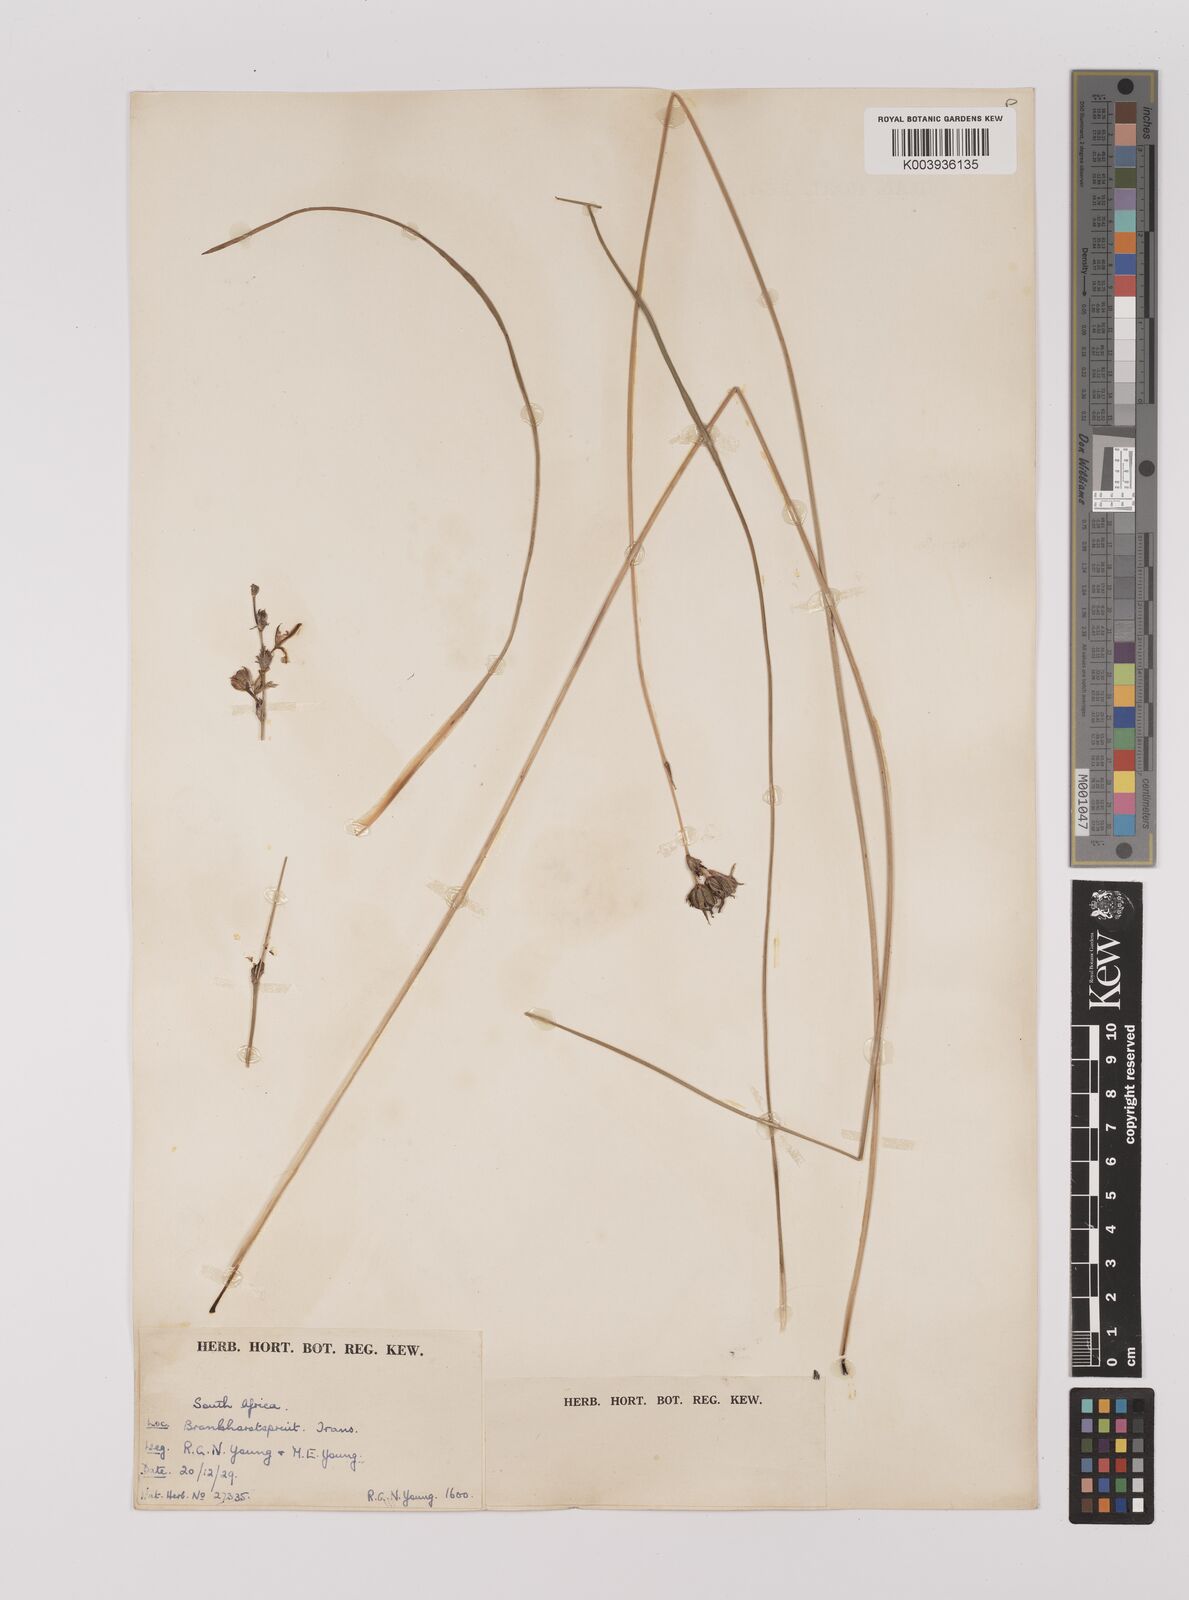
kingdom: Plantae
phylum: Tracheophyta
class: Liliopsida
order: Asparagales
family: Asparagaceae
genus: Chlorophytum
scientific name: Chlorophytum
